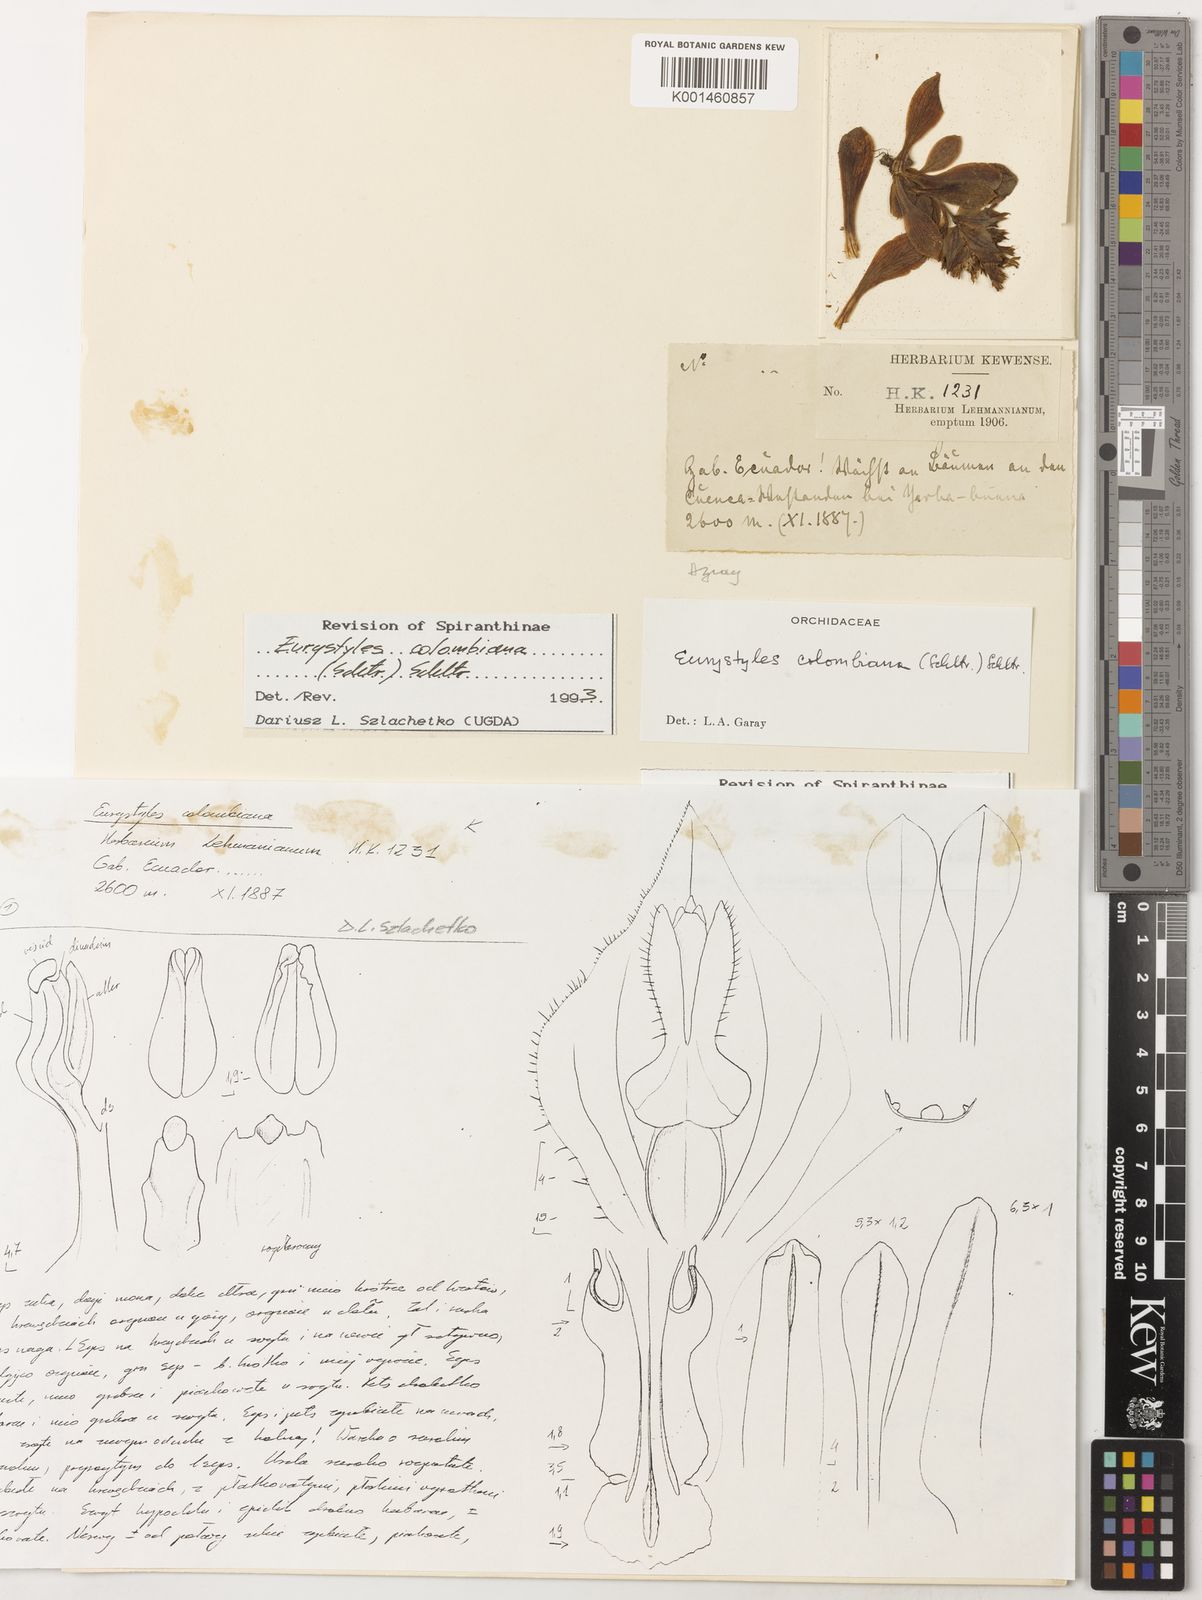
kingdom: Plantae
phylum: Tracheophyta
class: Liliopsida
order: Asparagales
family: Orchidaceae
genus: Eurystyles
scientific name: Eurystyles colombiana
